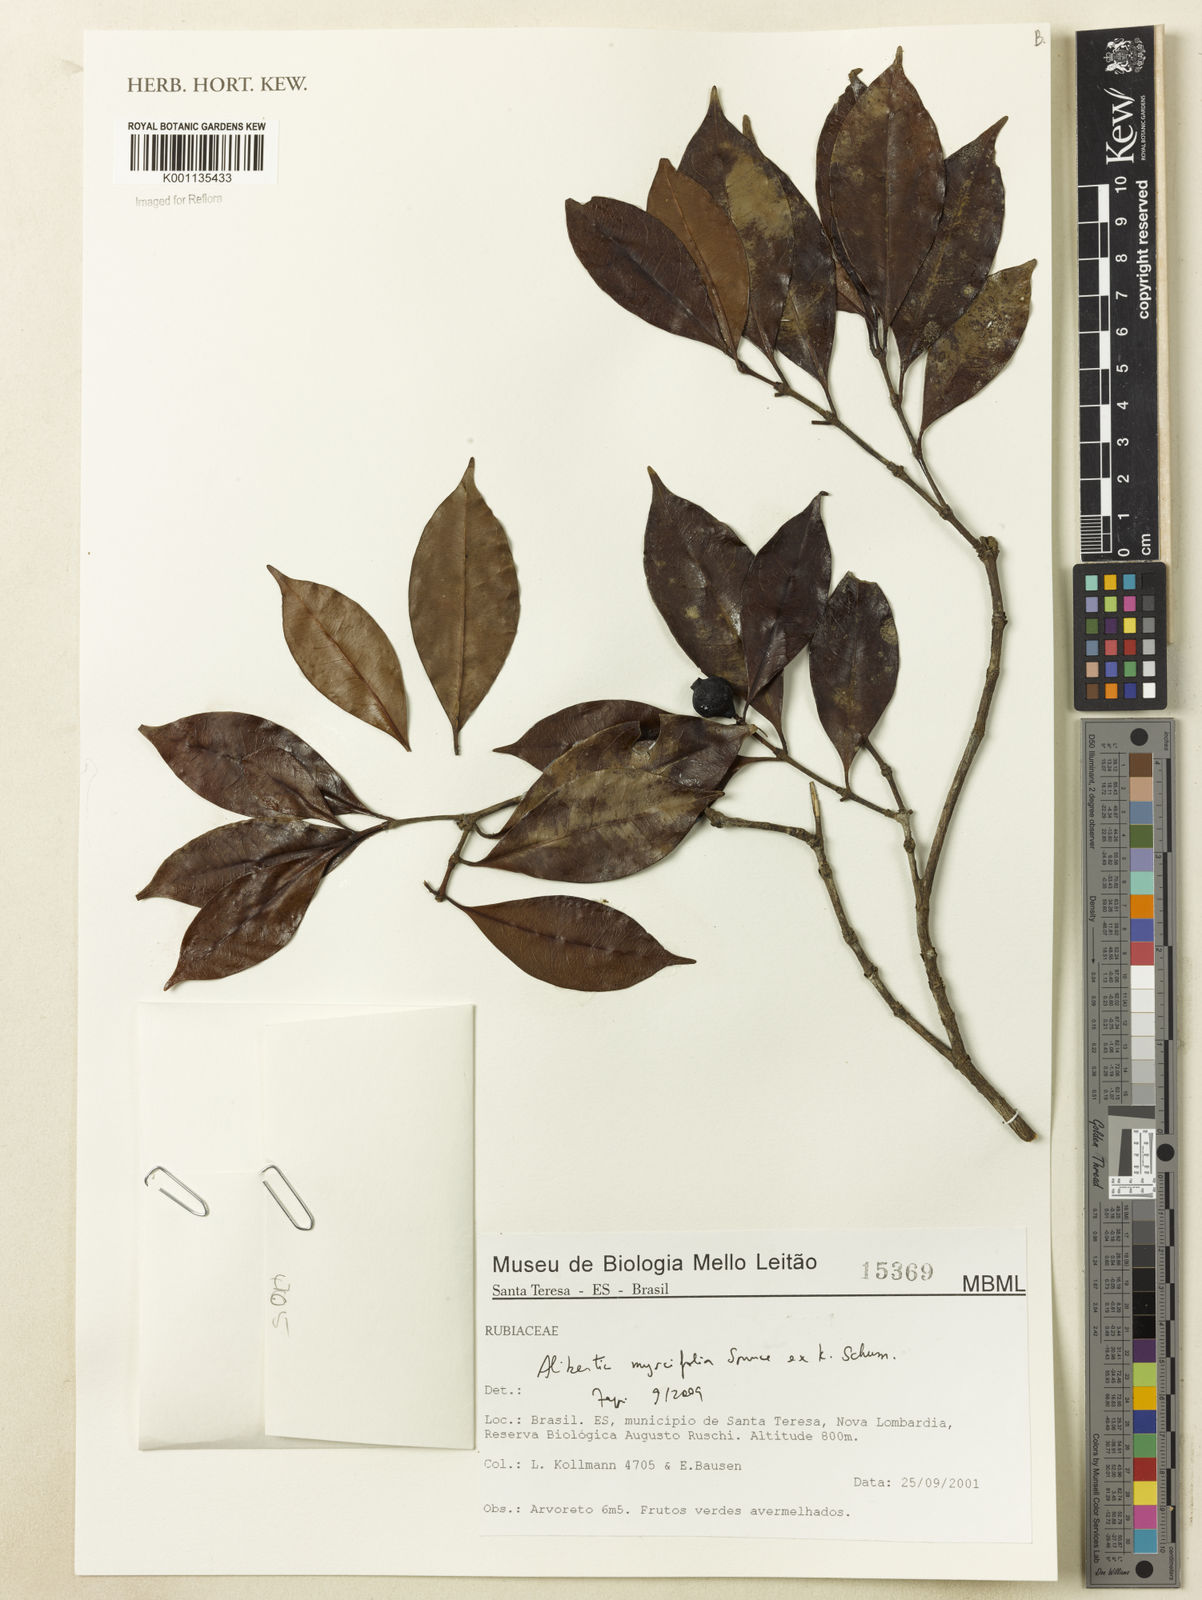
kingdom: Plantae
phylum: Tracheophyta
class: Magnoliopsida
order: Gentianales
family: Rubiaceae
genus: Cordiera
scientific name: Cordiera myrciifolia
